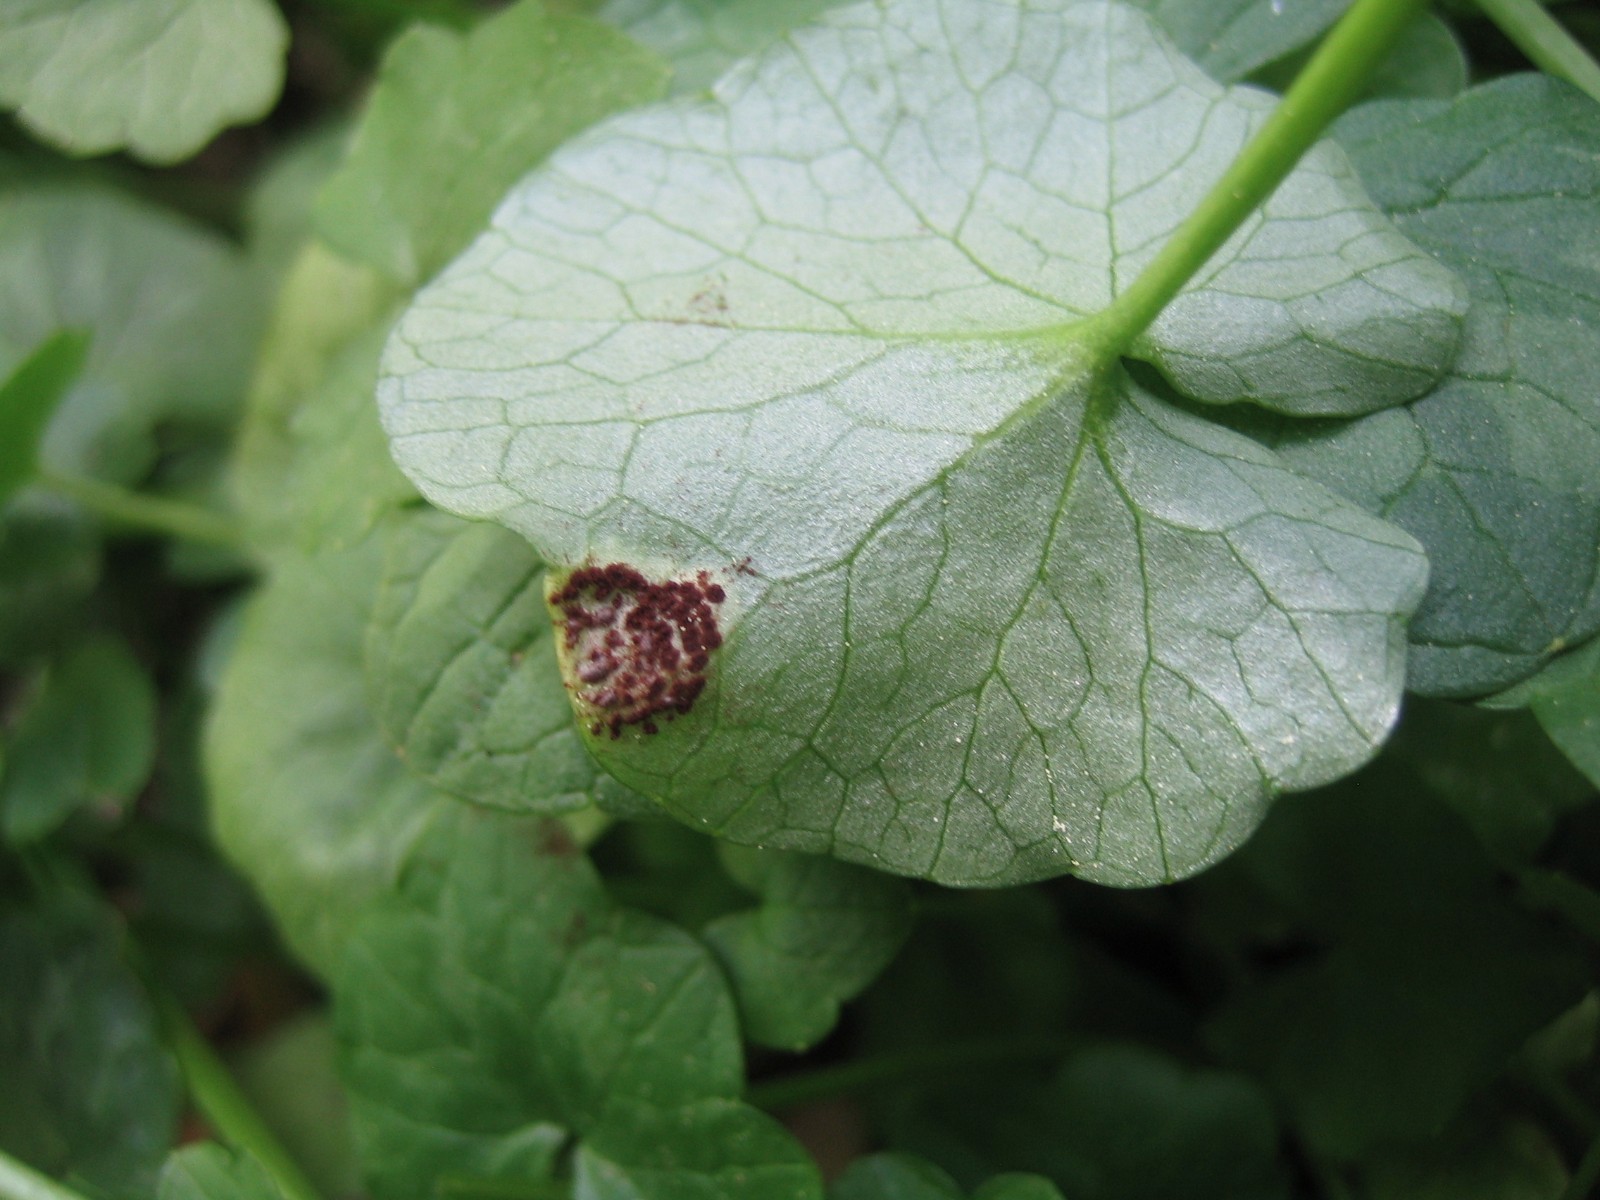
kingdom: Fungi
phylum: Basidiomycota
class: Pucciniomycetes
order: Pucciniales
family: Pucciniaceae
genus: Uromyces
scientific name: Uromyces ficariae
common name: vorterod-encellerust
